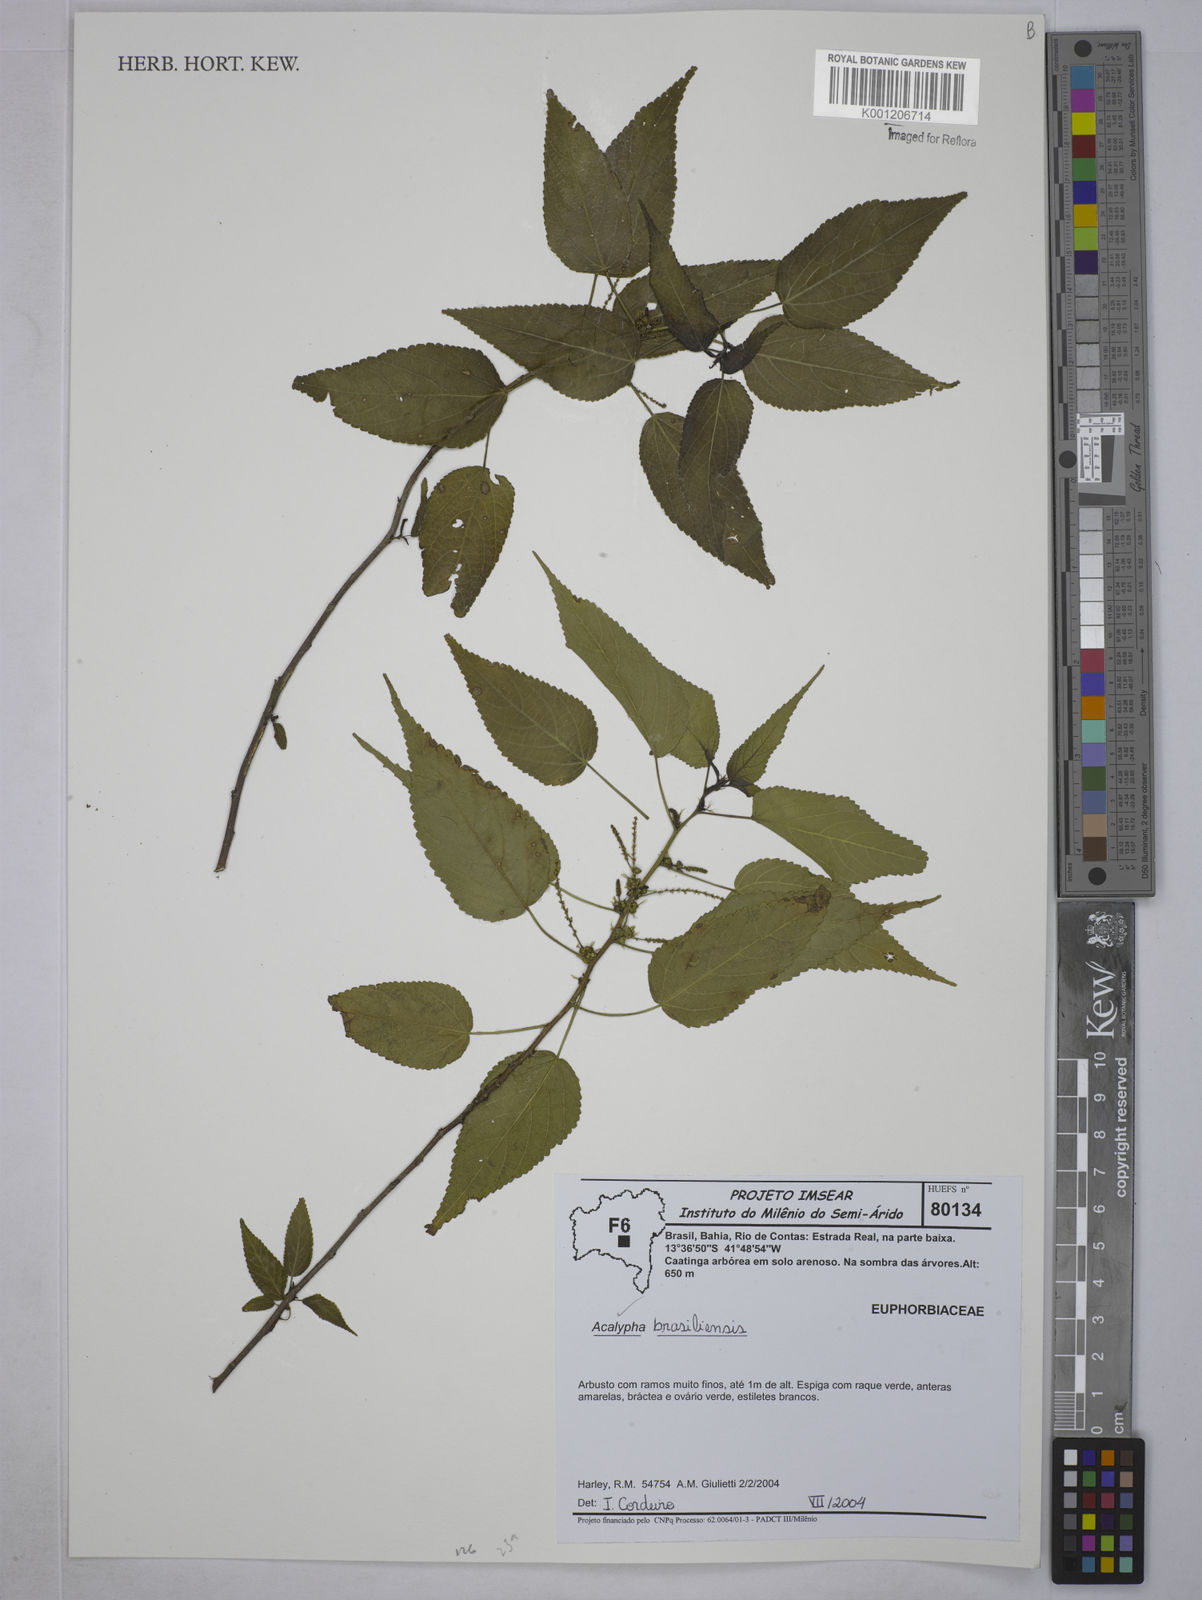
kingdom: Plantae
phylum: Tracheophyta
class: Magnoliopsida
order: Malpighiales
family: Euphorbiaceae
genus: Acalypha
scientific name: Acalypha
